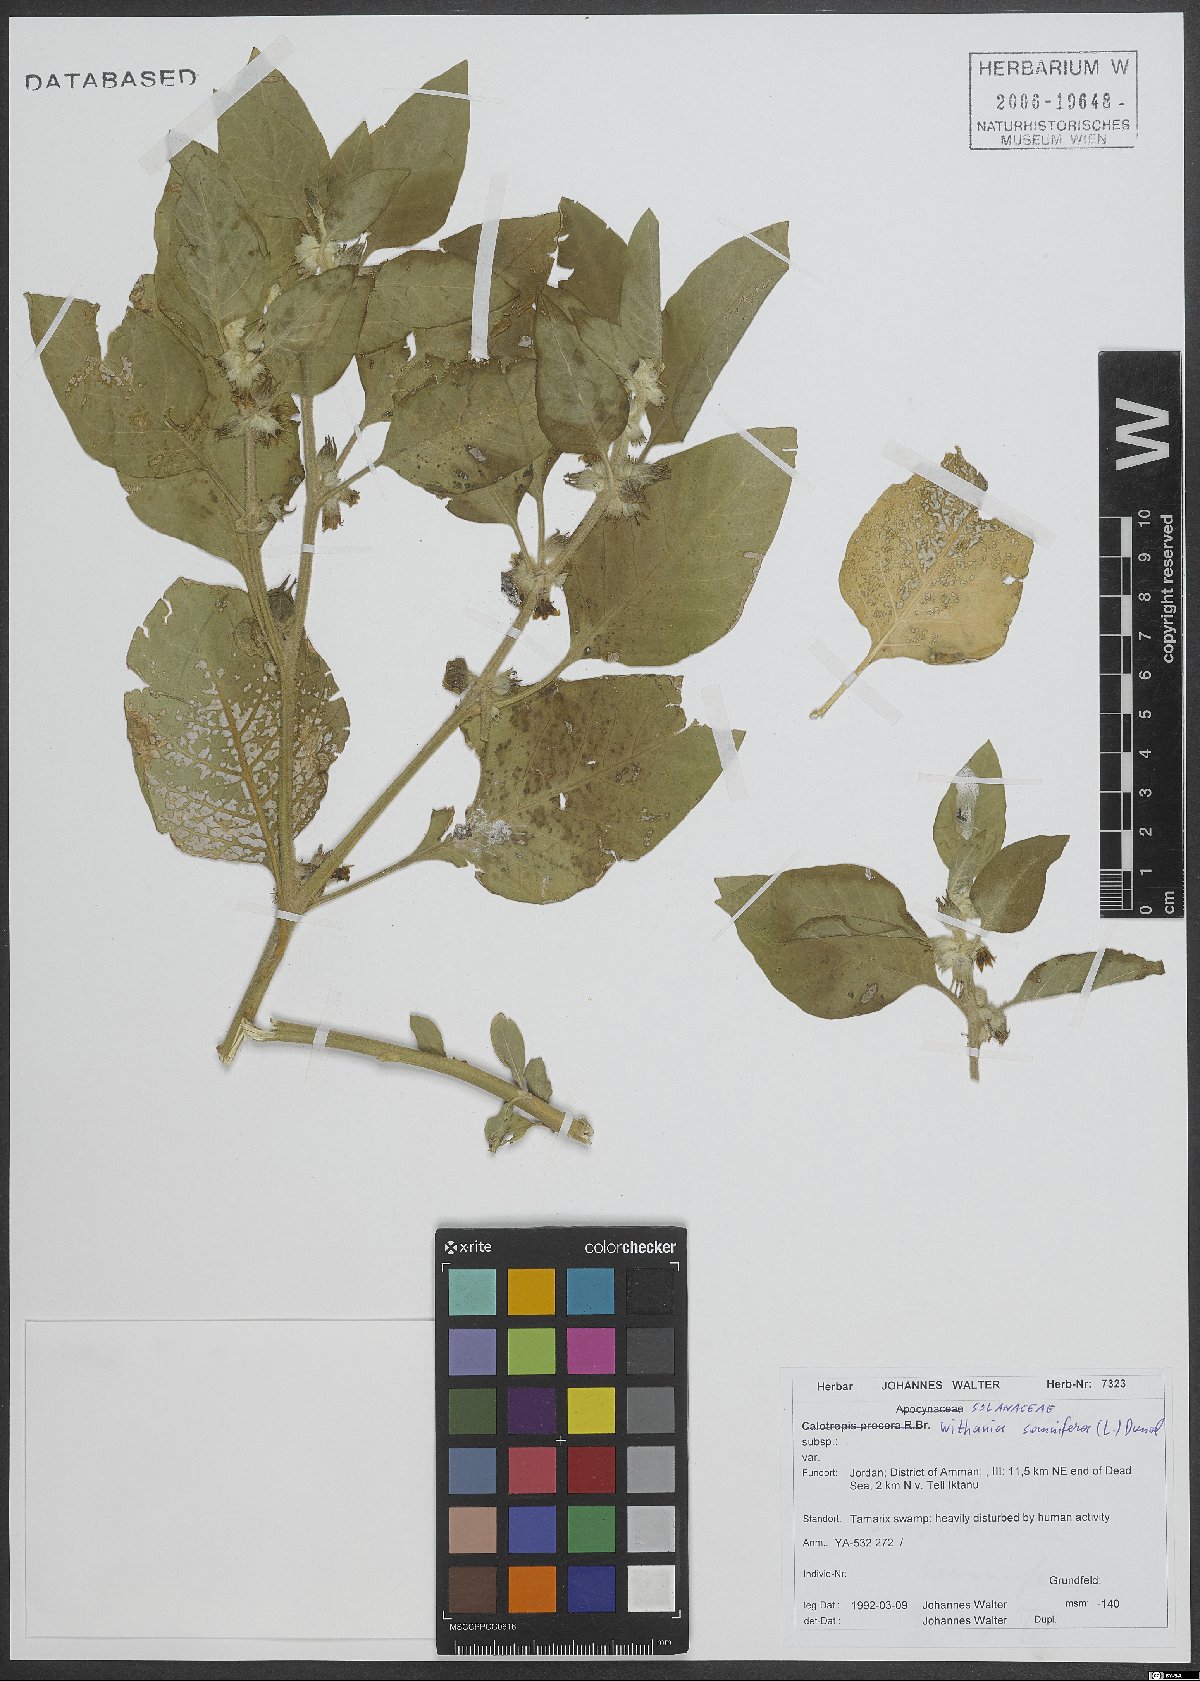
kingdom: Plantae
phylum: Tracheophyta
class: Magnoliopsida
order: Solanales
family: Solanaceae
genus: Withania
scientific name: Withania somnifera
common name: Winter-cherry
